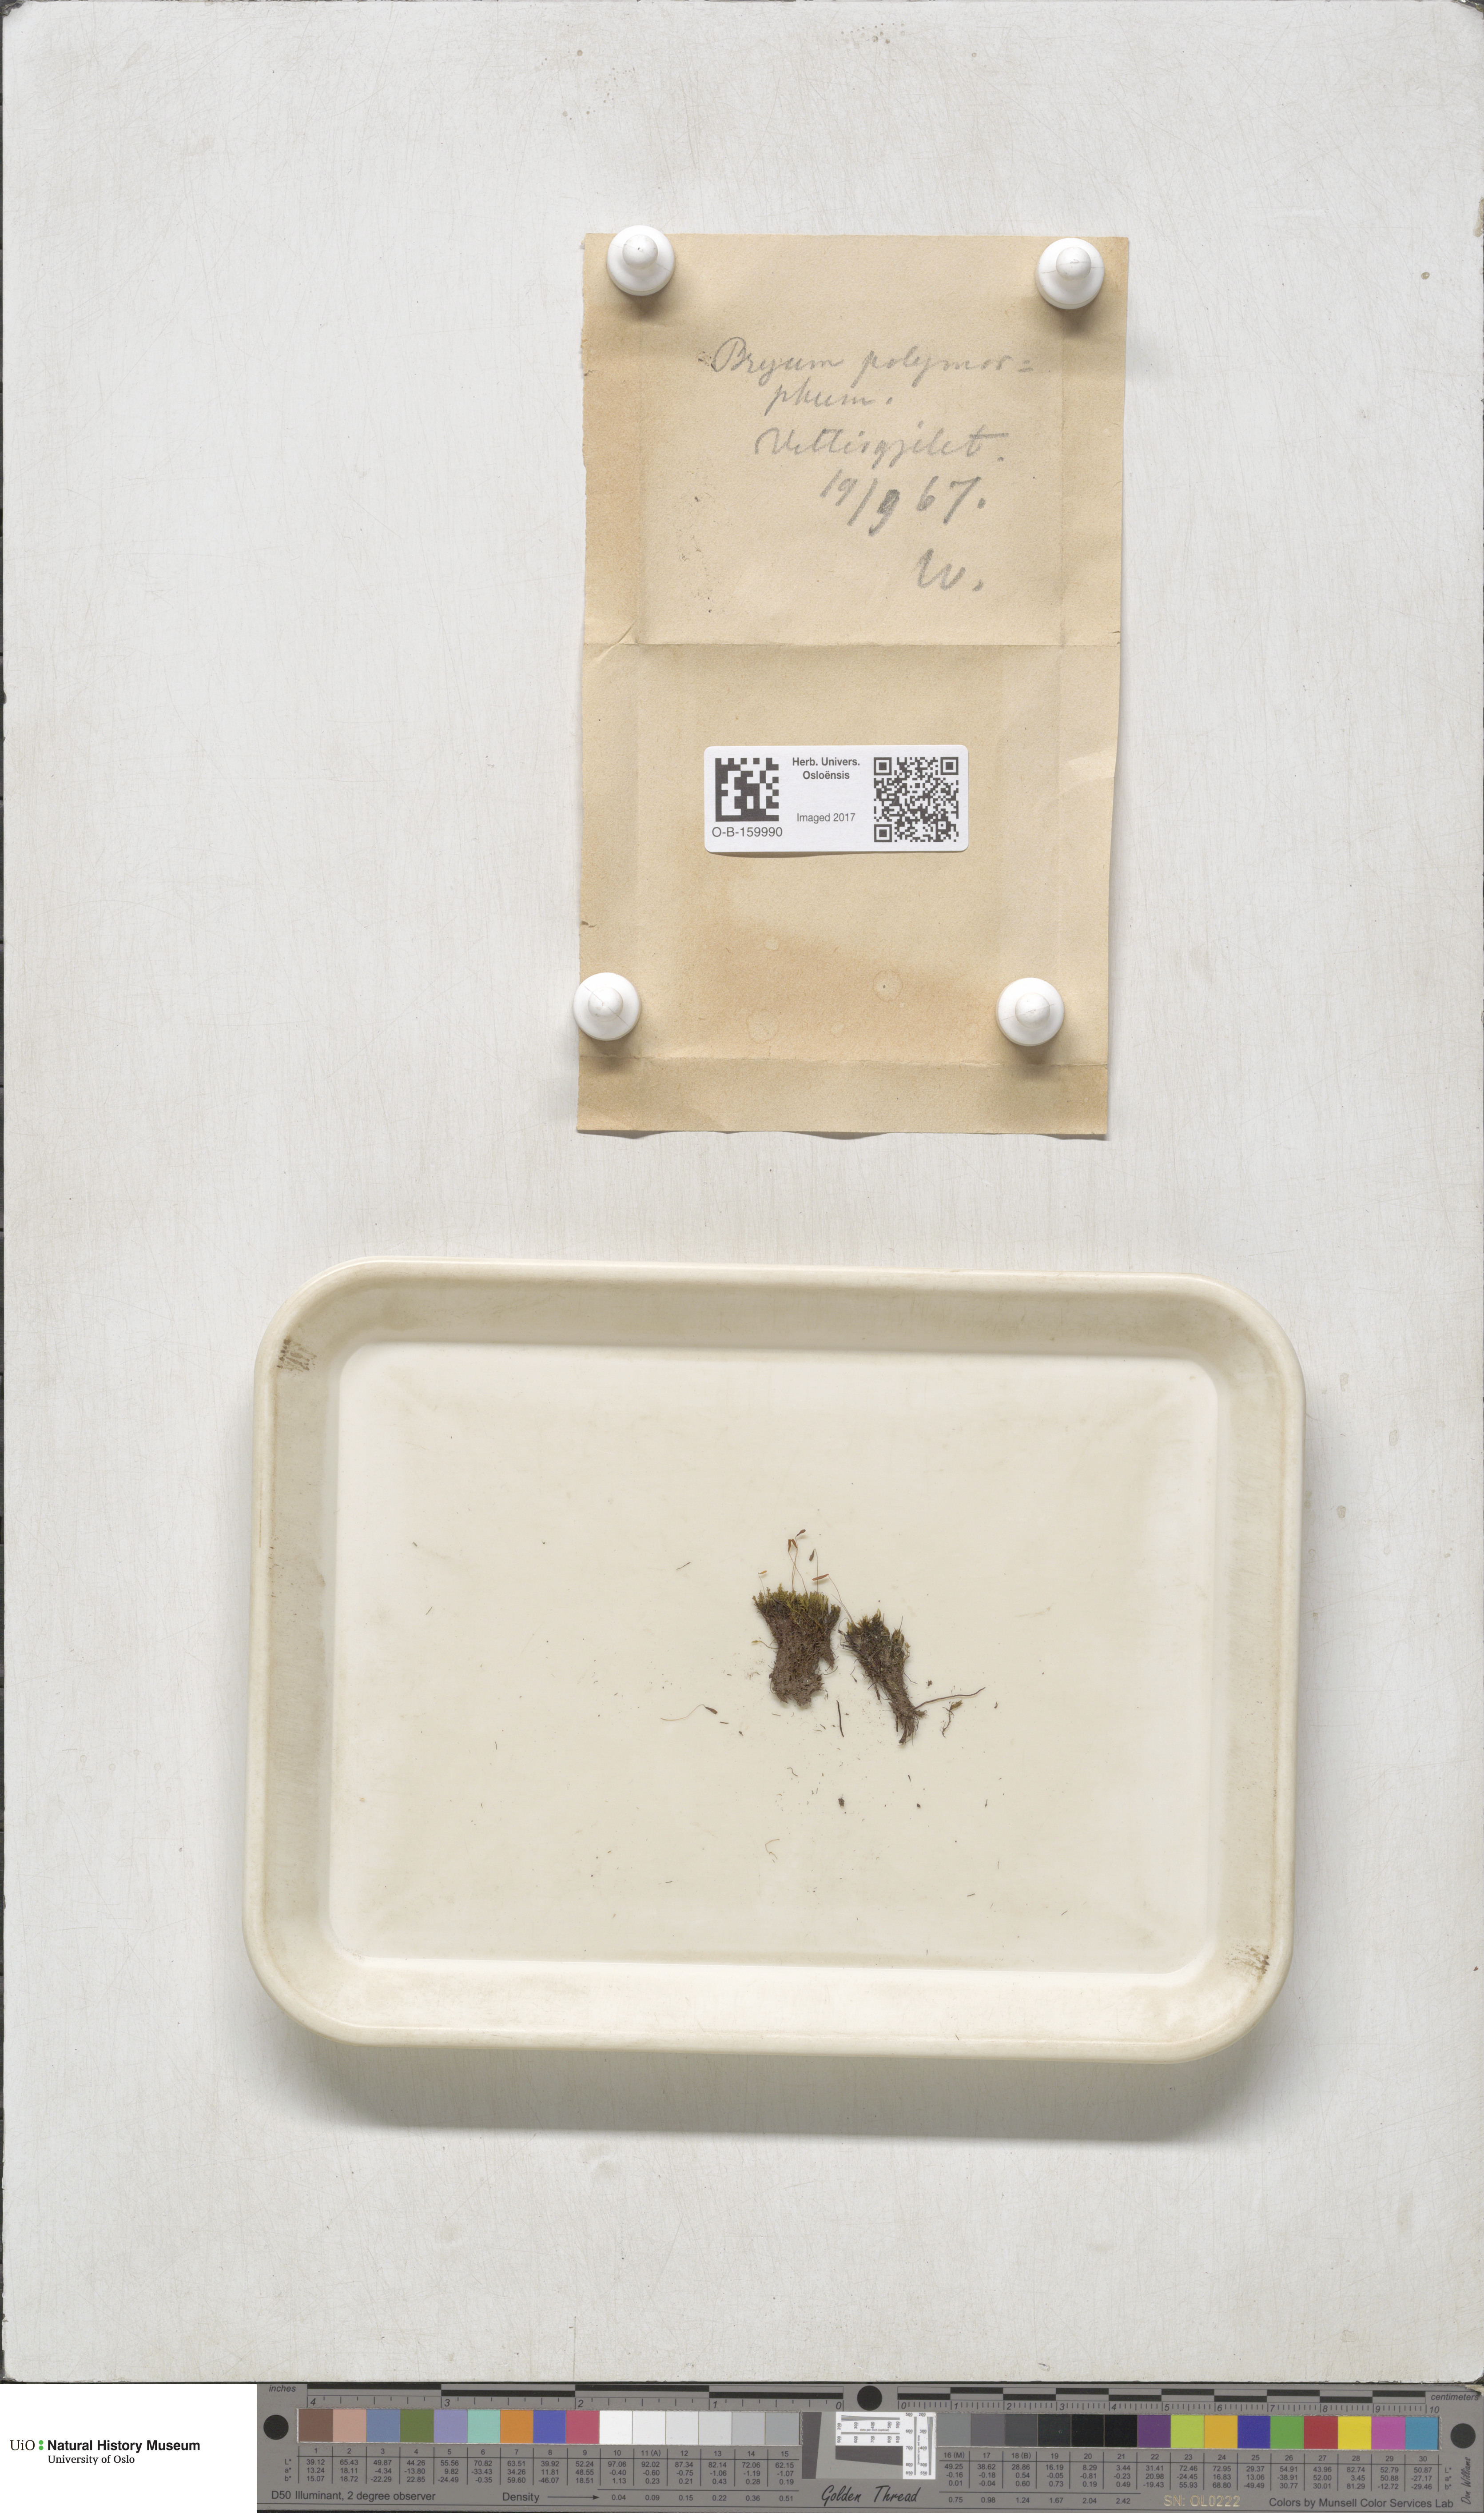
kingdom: Plantae
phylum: Bryophyta
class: Bryopsida
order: Bryales
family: Mniaceae
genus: Pohlia
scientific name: Pohlia elongata
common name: Long-fruited thread-moss
